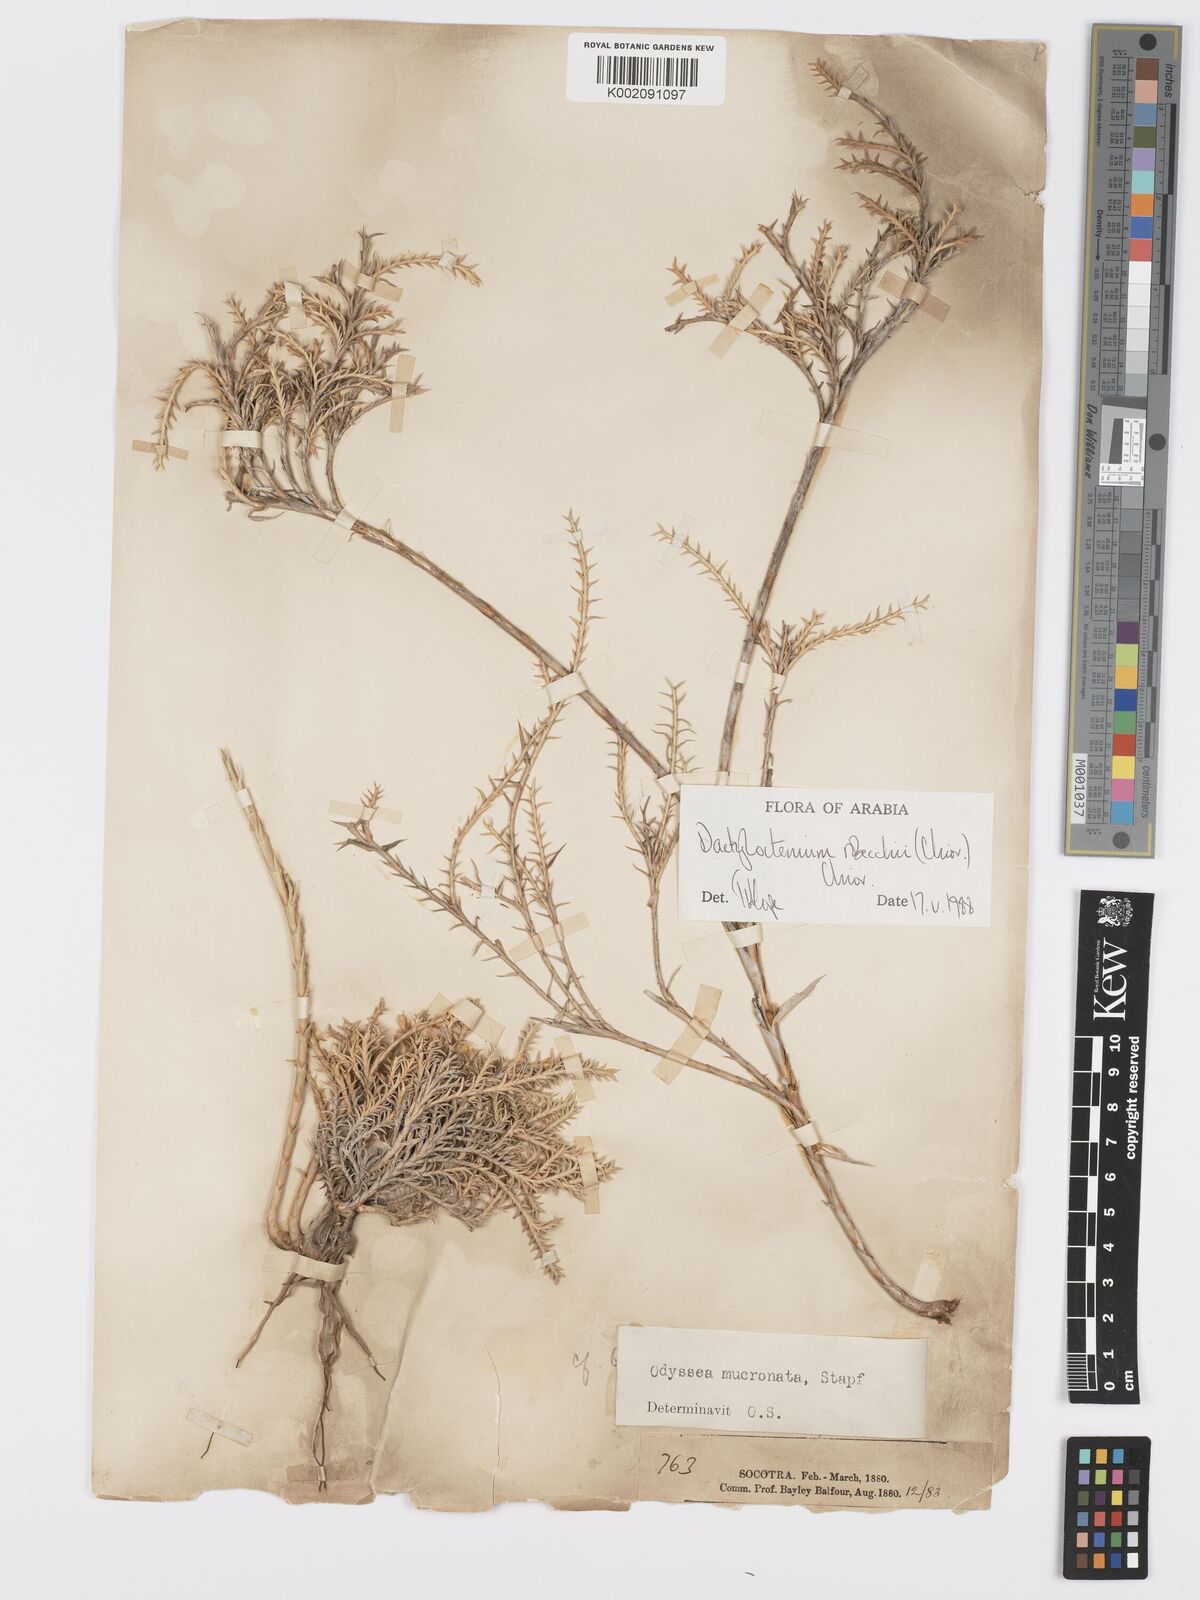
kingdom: Plantae
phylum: Tracheophyta
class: Liliopsida
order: Poales
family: Poaceae
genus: Dactyloctenium
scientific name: Dactyloctenium robecchii
